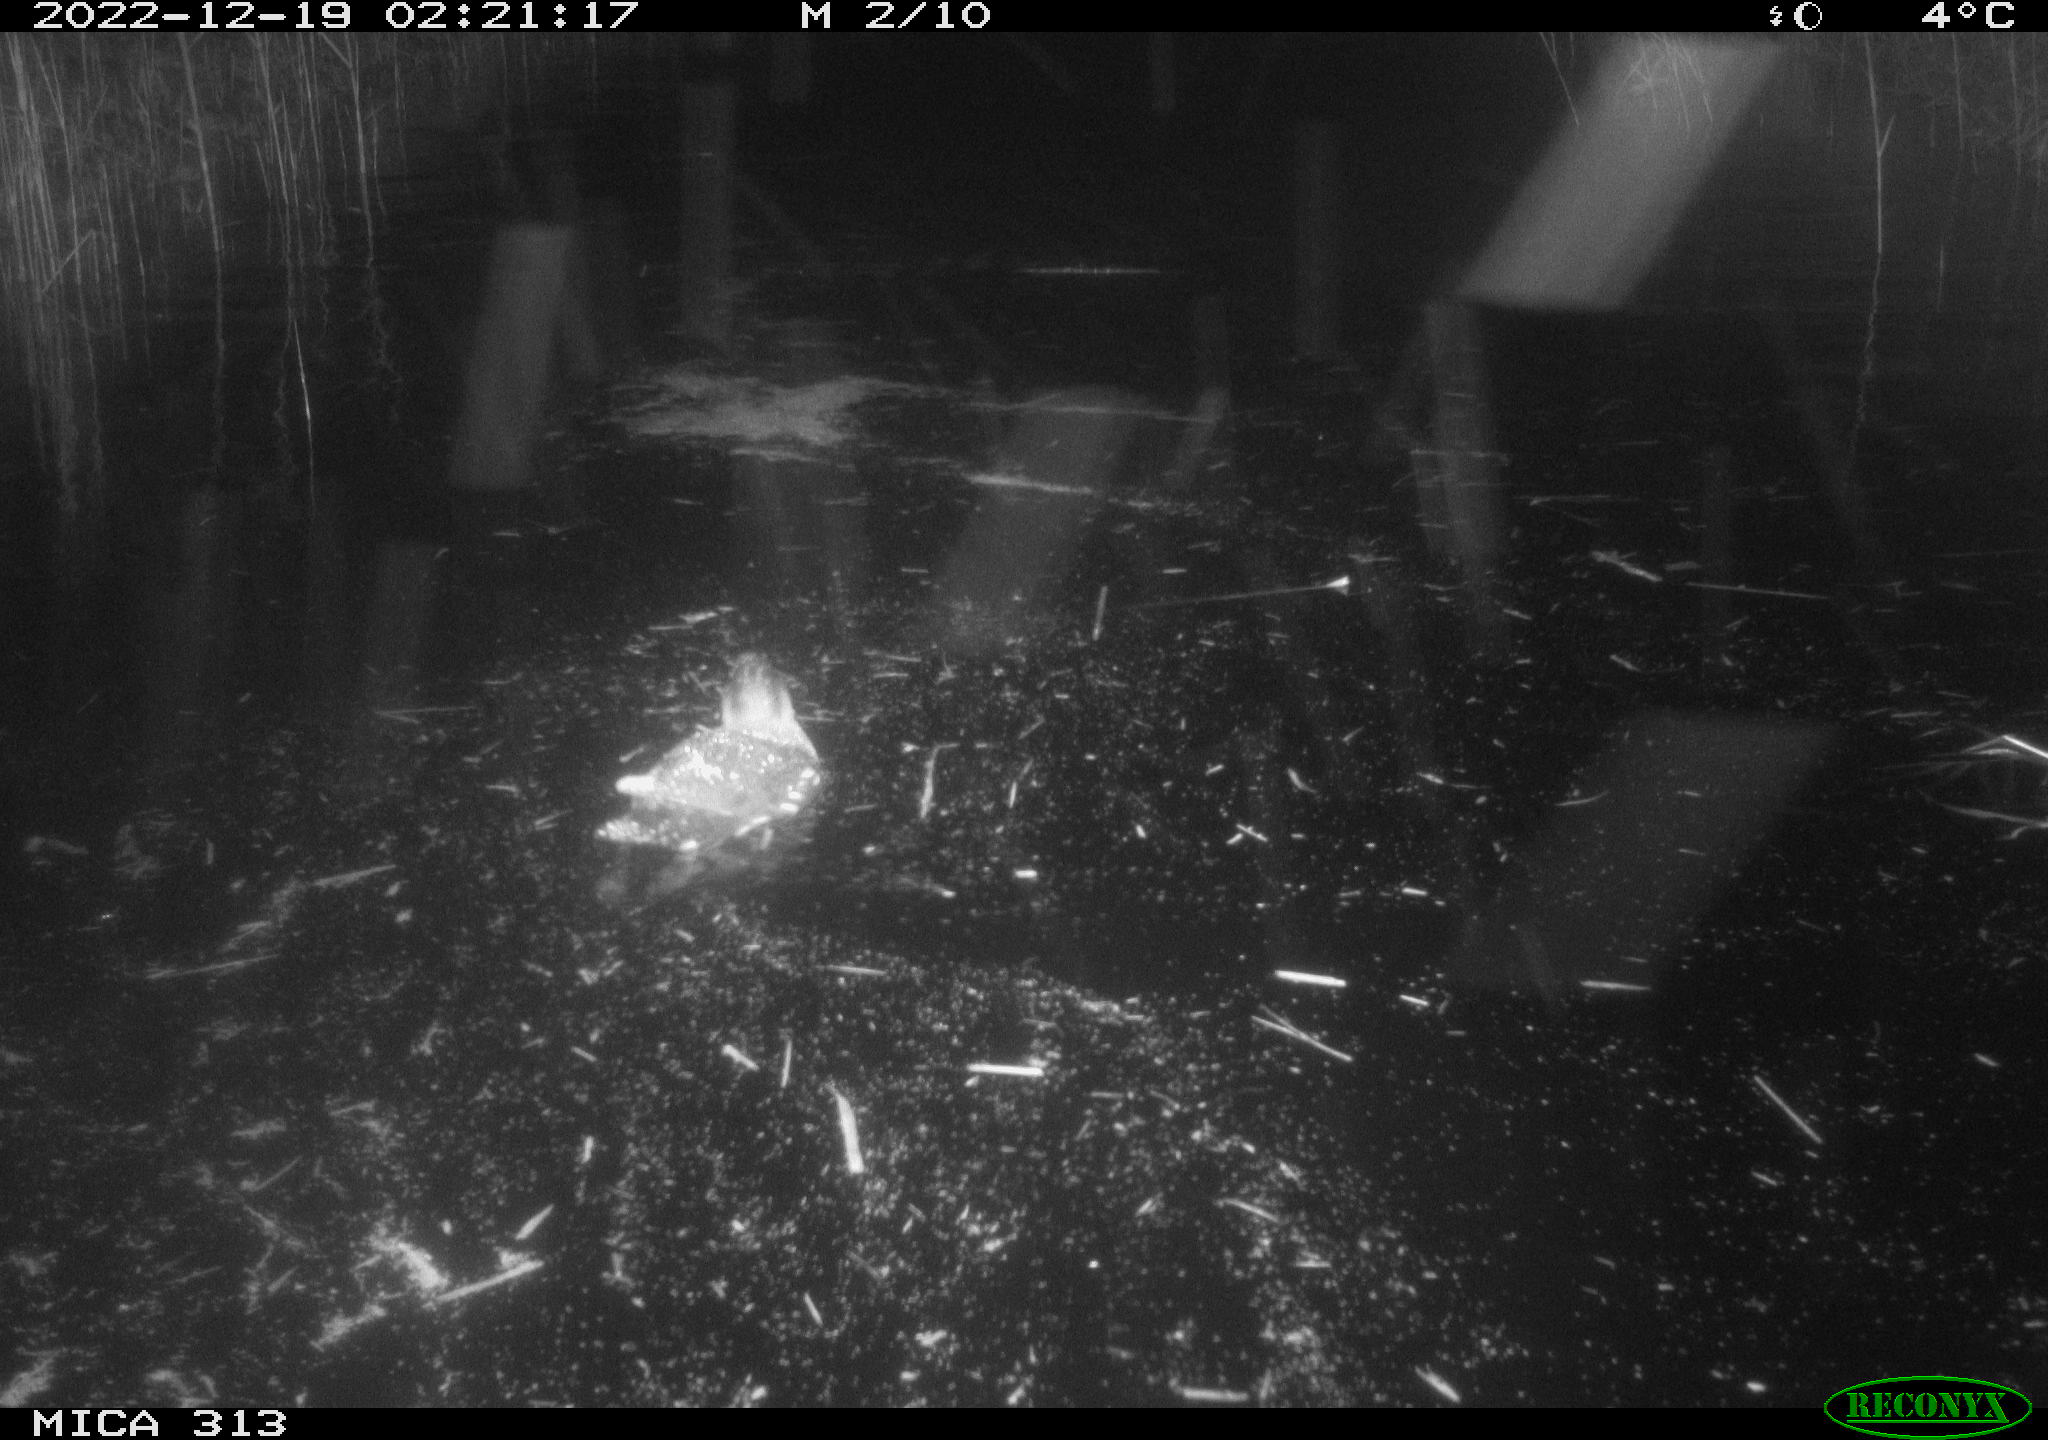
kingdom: Animalia
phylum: Chordata
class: Mammalia
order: Rodentia
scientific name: Rodentia
